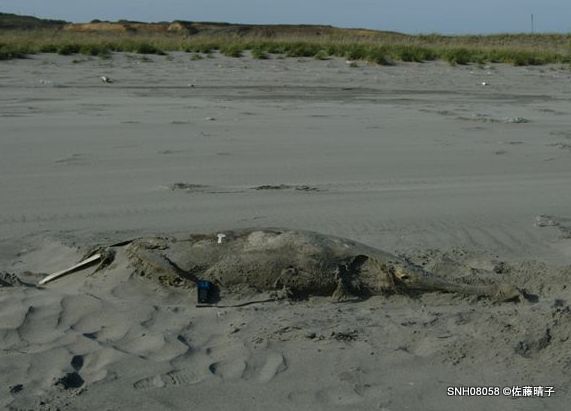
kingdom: Animalia
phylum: Chordata
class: Mammalia
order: Cetacea
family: Delphinidae
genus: Lagenorhynchus
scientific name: Lagenorhynchus obliquidens
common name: Pacific white-sided dolphin
